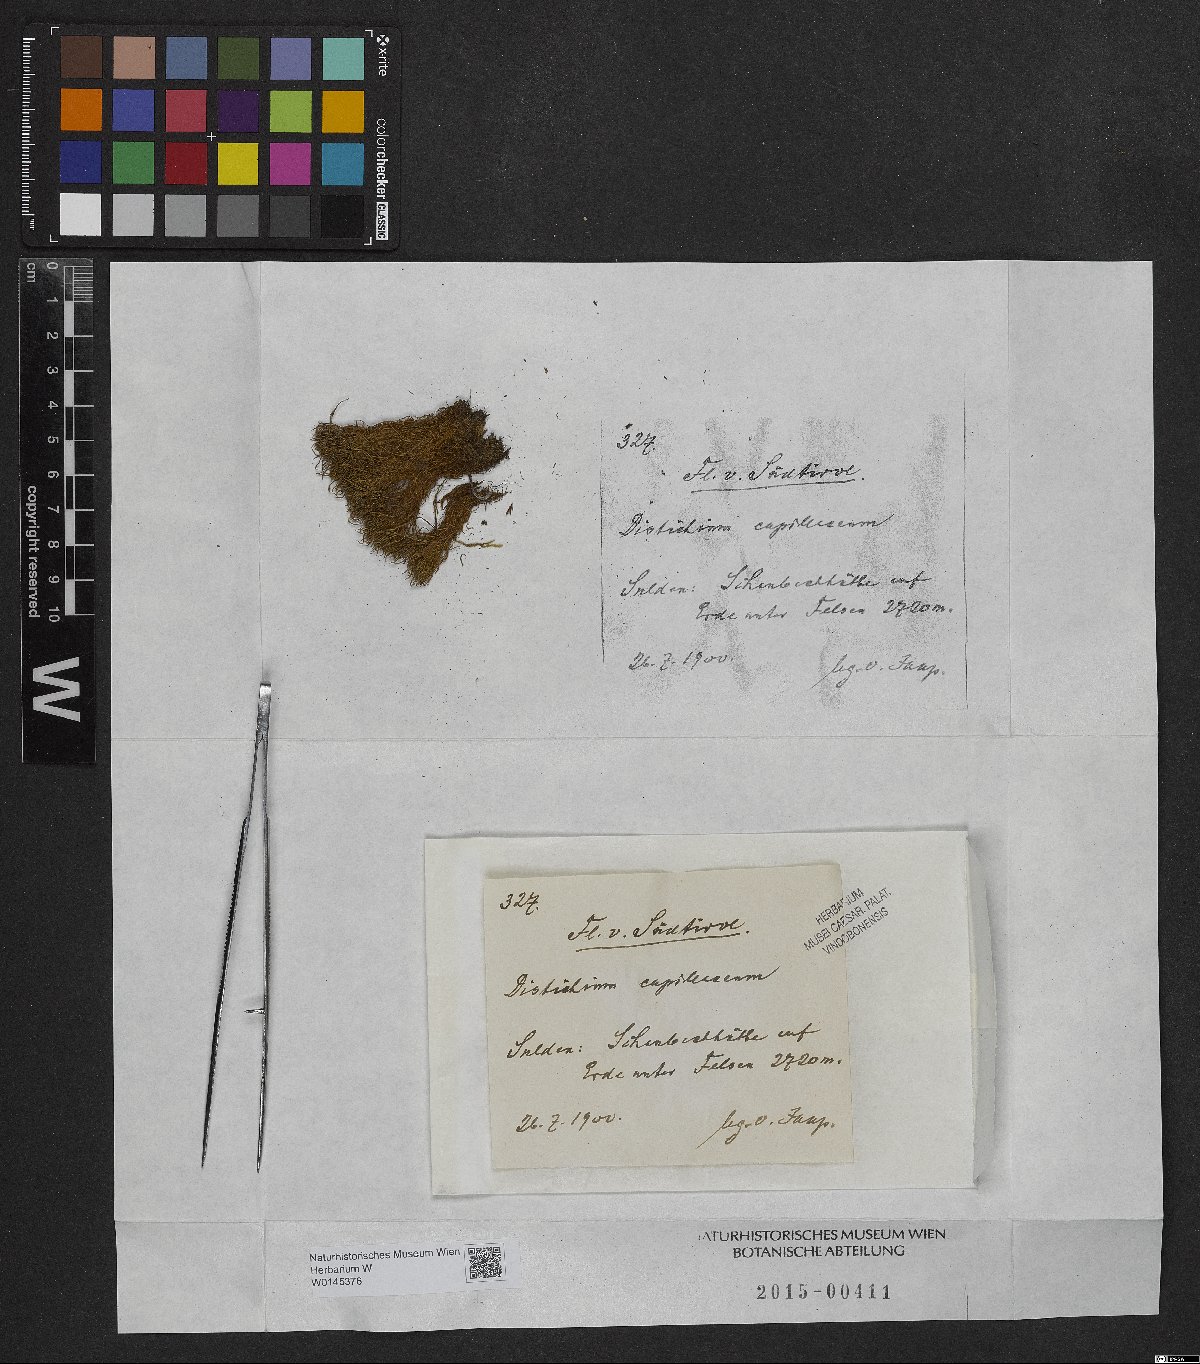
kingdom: Plantae
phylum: Bryophyta
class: Bryopsida
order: Scouleriales
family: Distichiaceae
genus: Distichium
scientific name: Distichium capillaceum
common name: Erect-fruited iris moss
